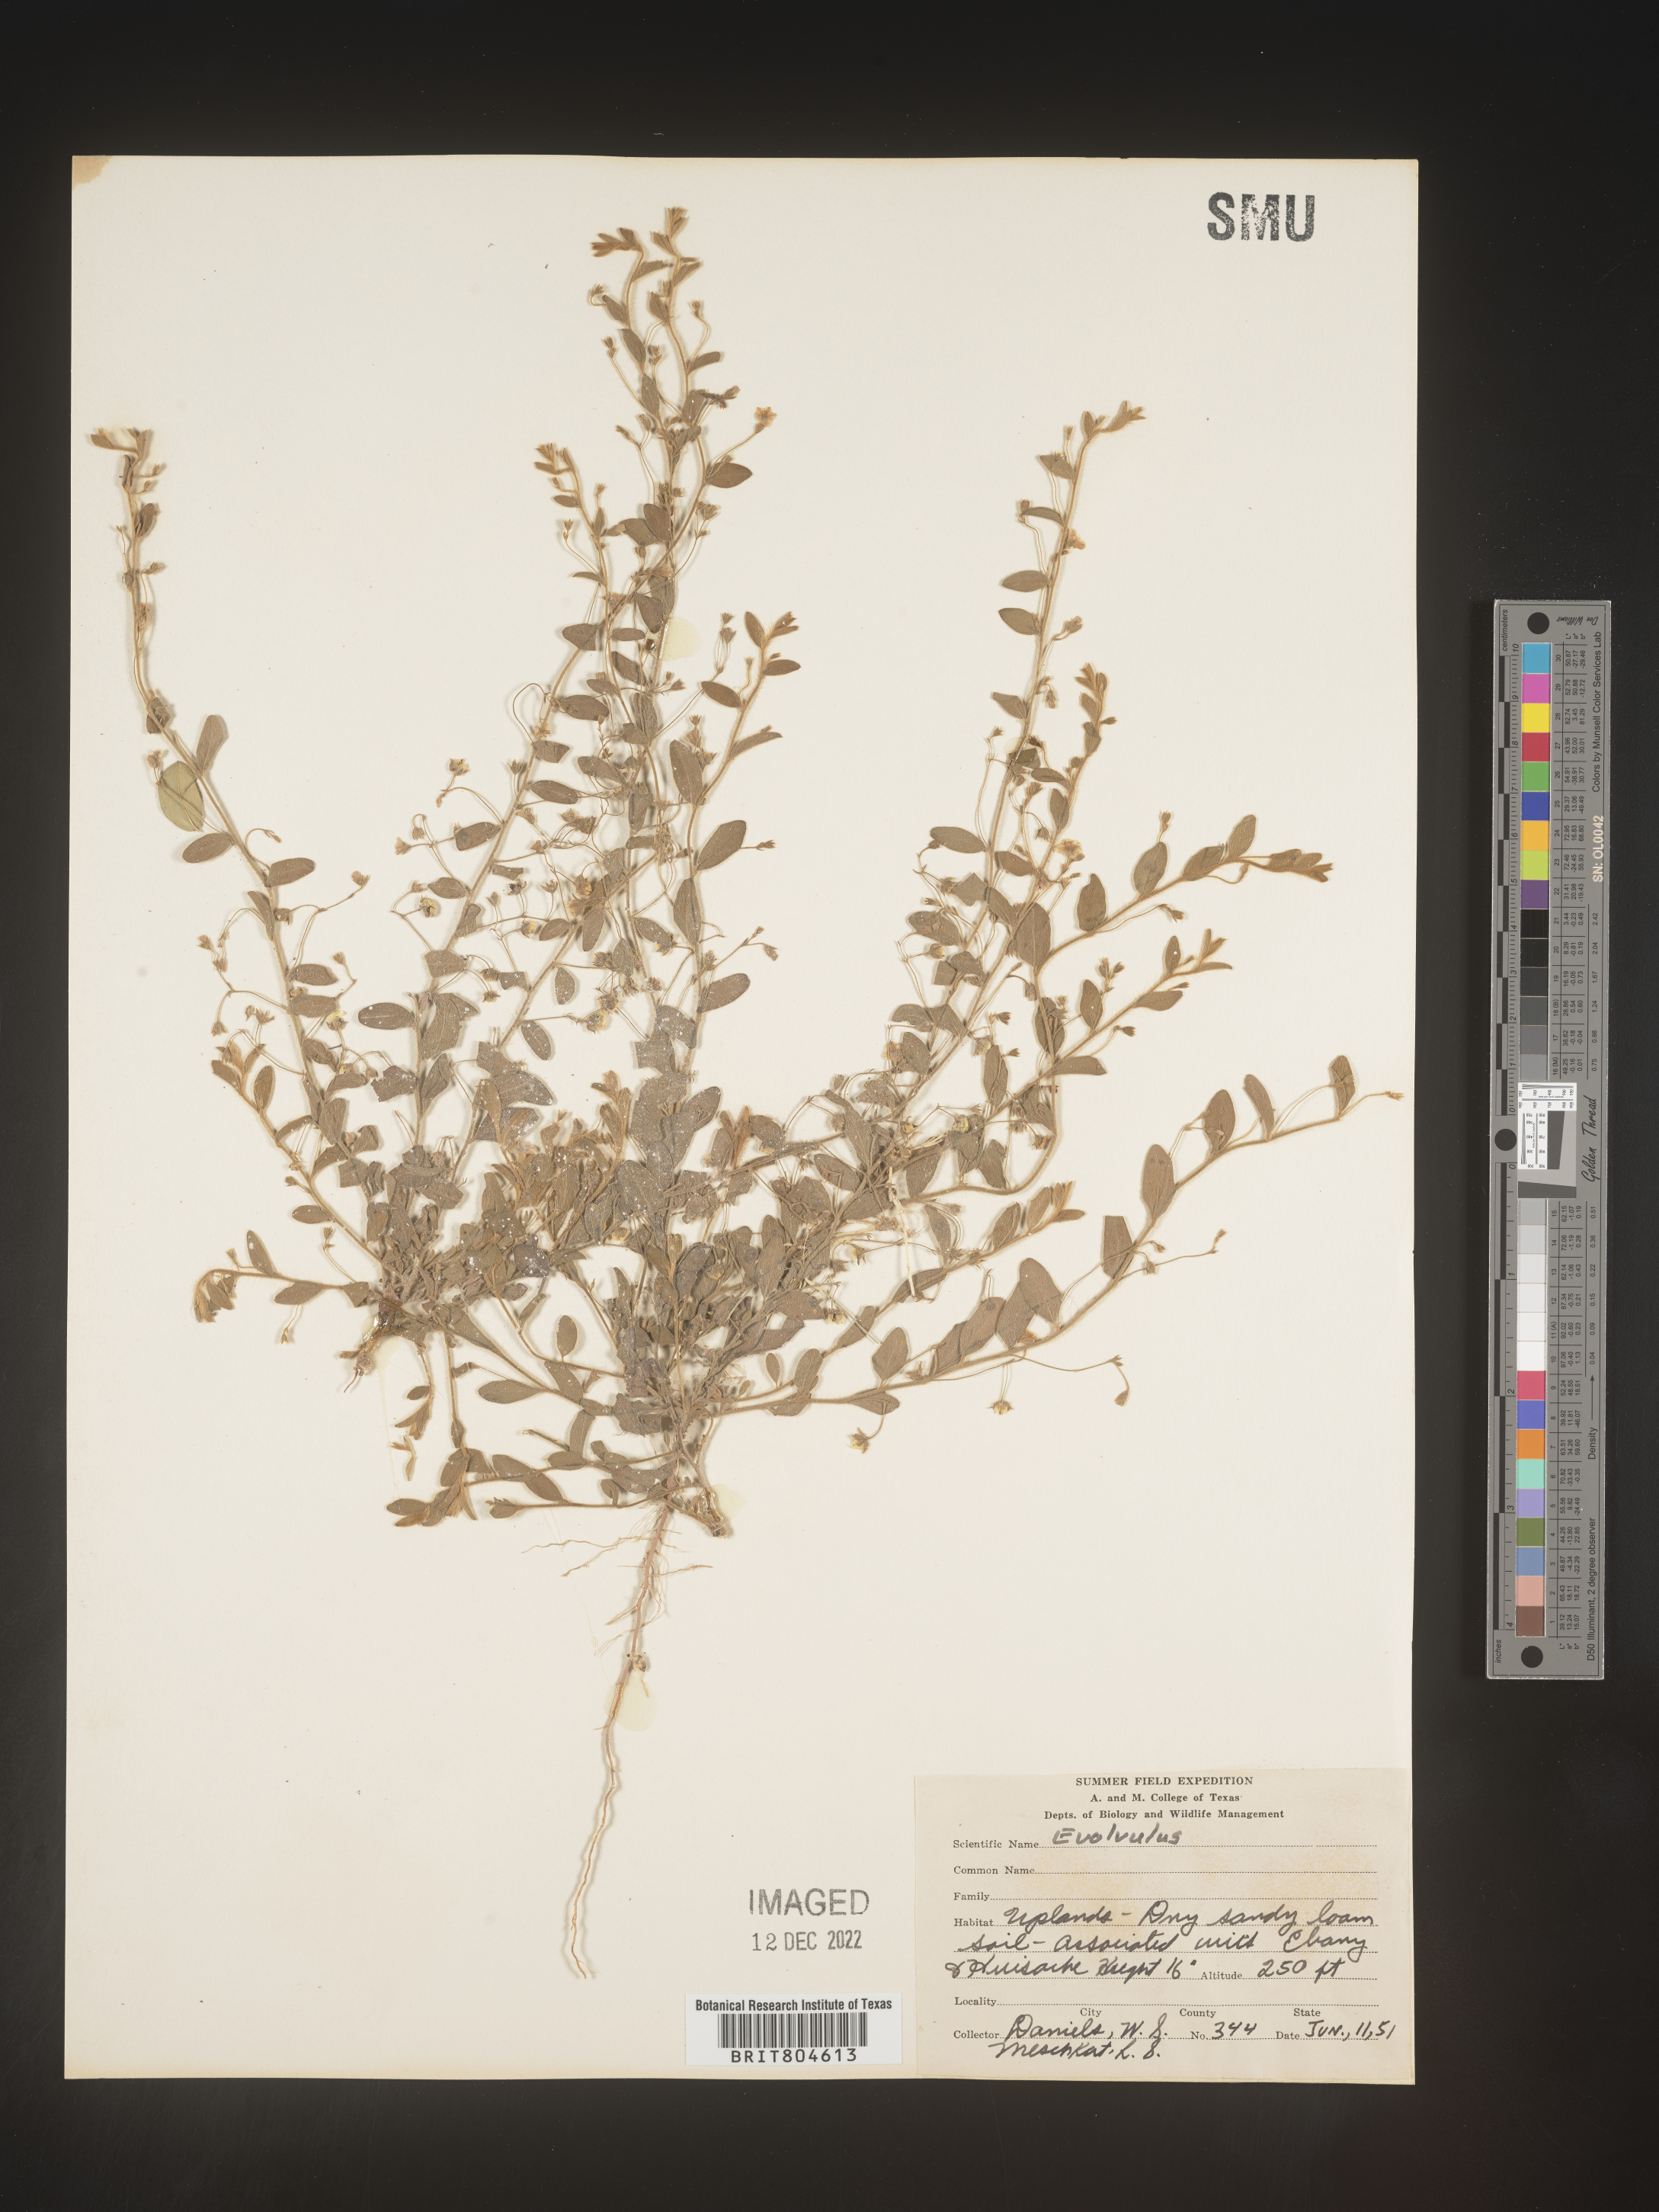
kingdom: Plantae
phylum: Tracheophyta
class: Magnoliopsida
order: Solanales
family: Convolvulaceae
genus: Evolvulus
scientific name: Evolvulus
